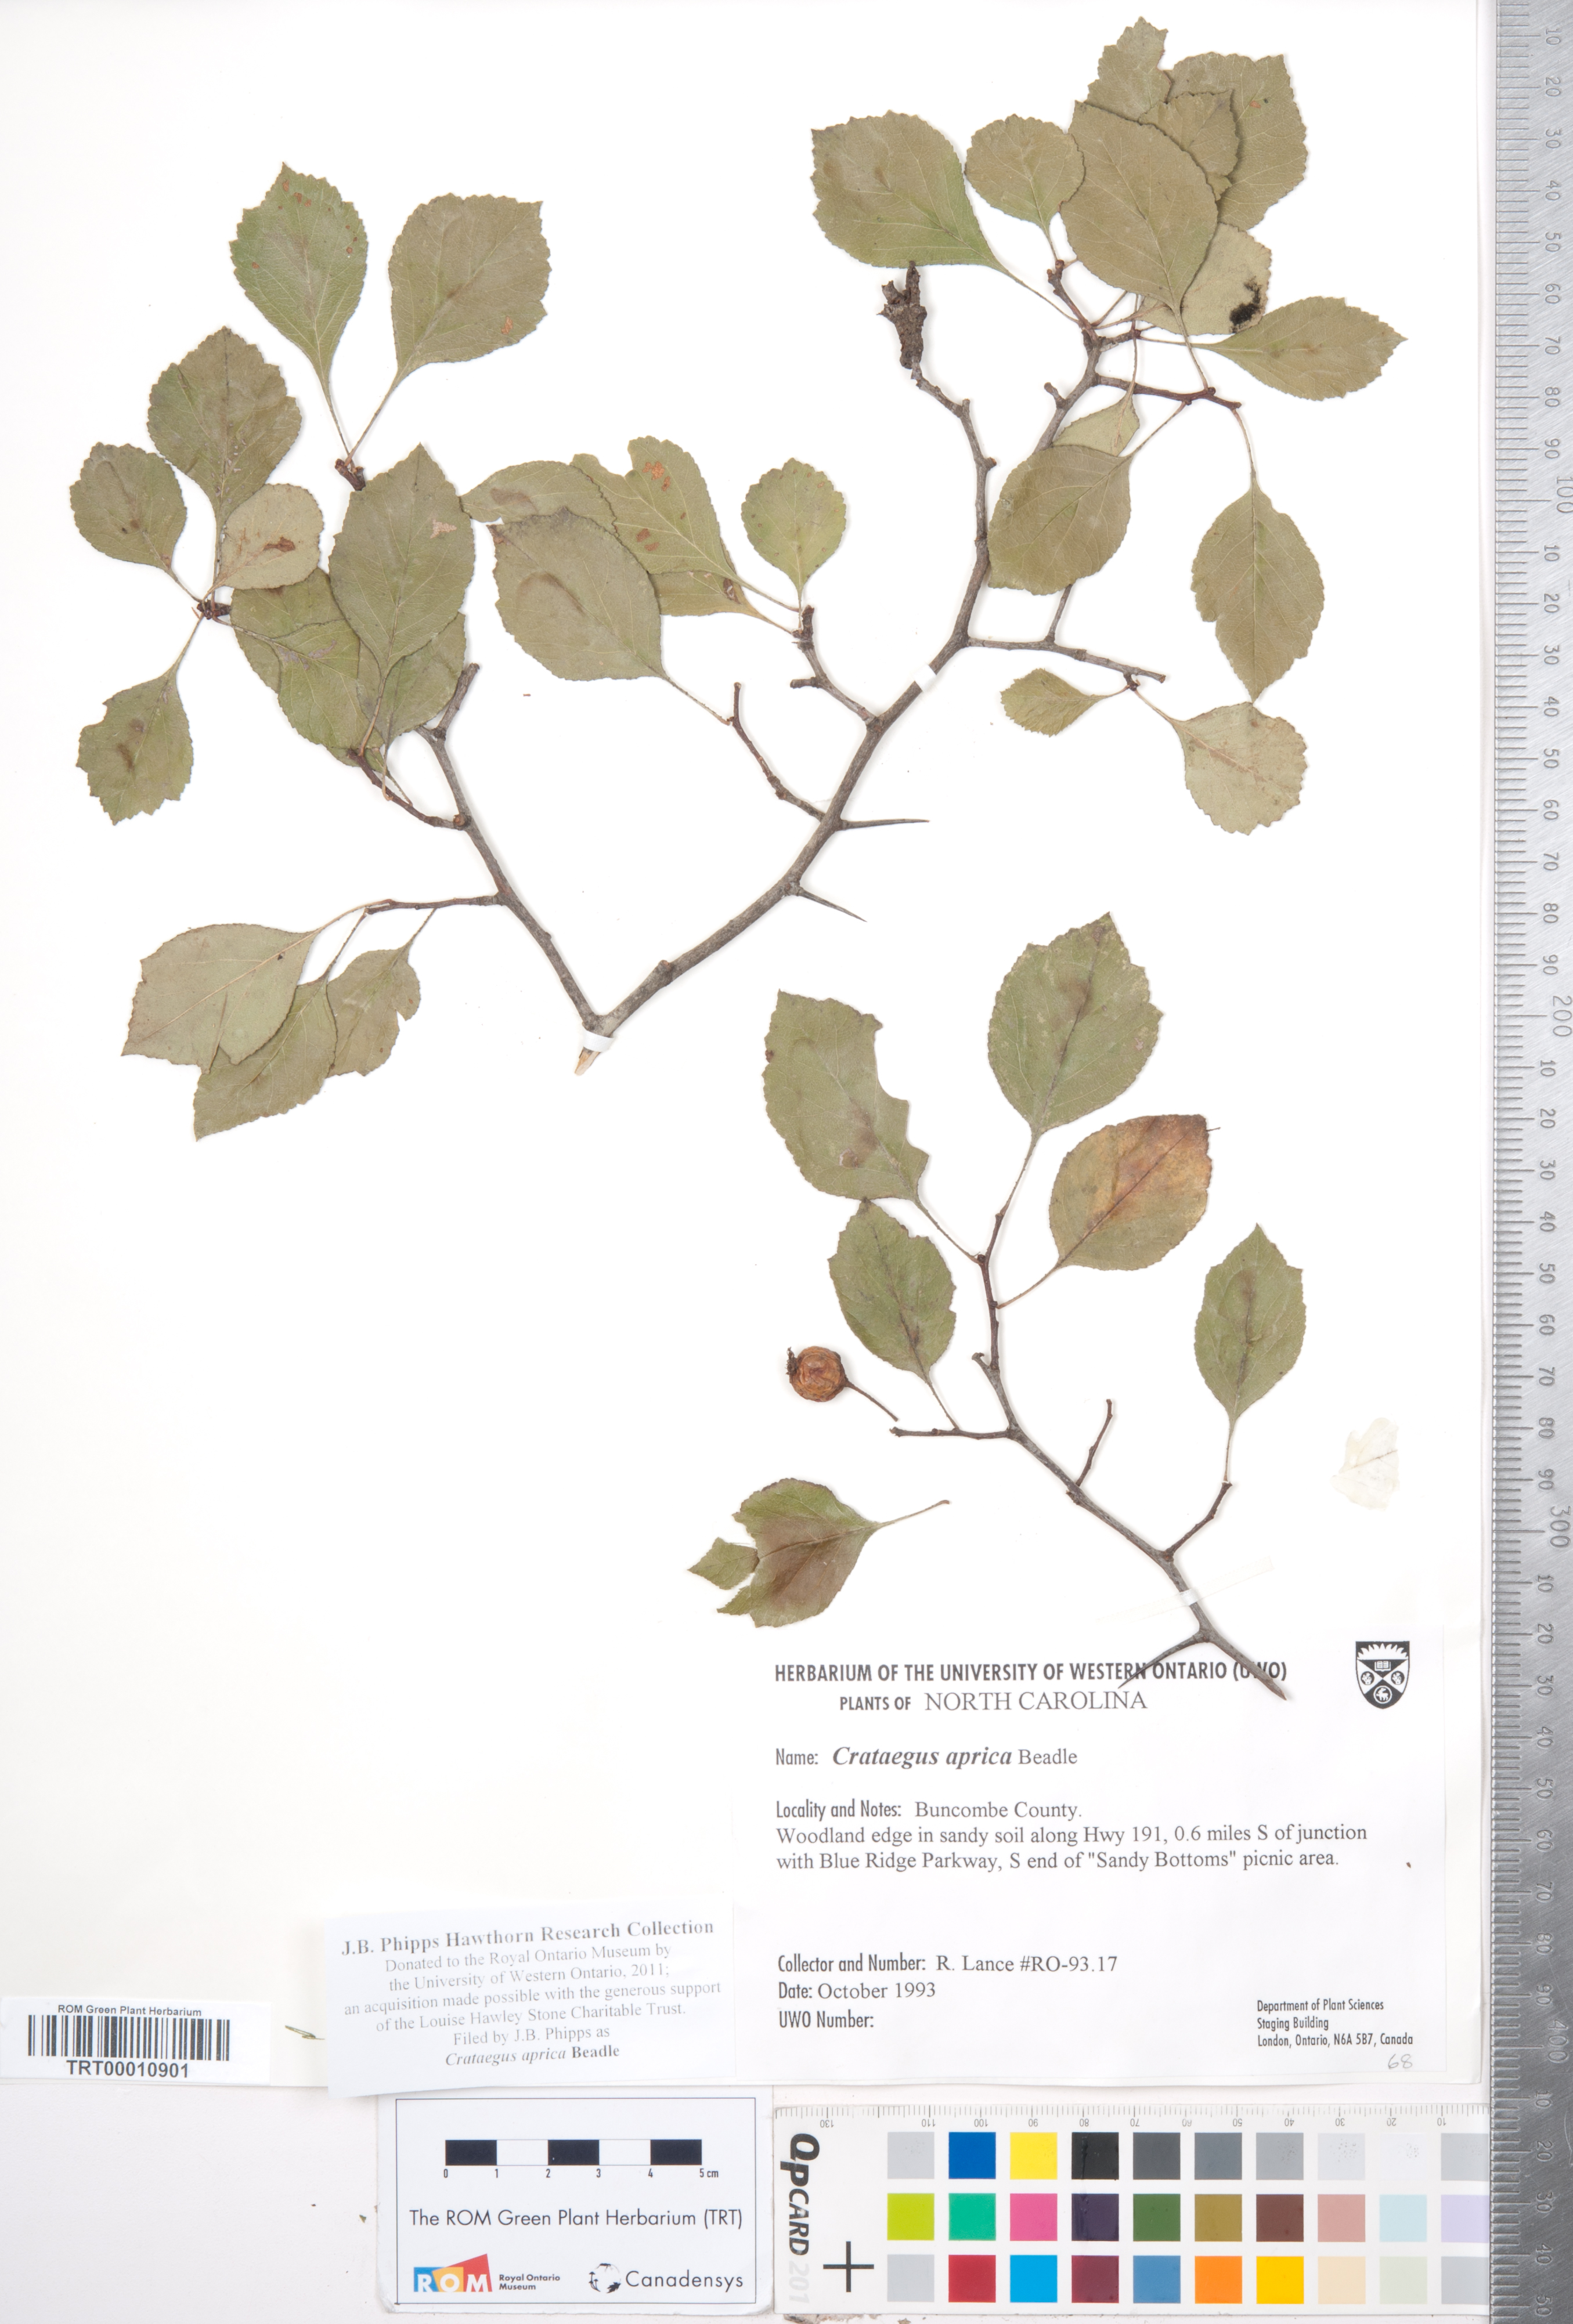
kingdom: Plantae
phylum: Tracheophyta
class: Magnoliopsida
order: Rosales
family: Rosaceae
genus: Crataegus
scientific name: Crataegus aprica
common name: Sunny hawthorn
